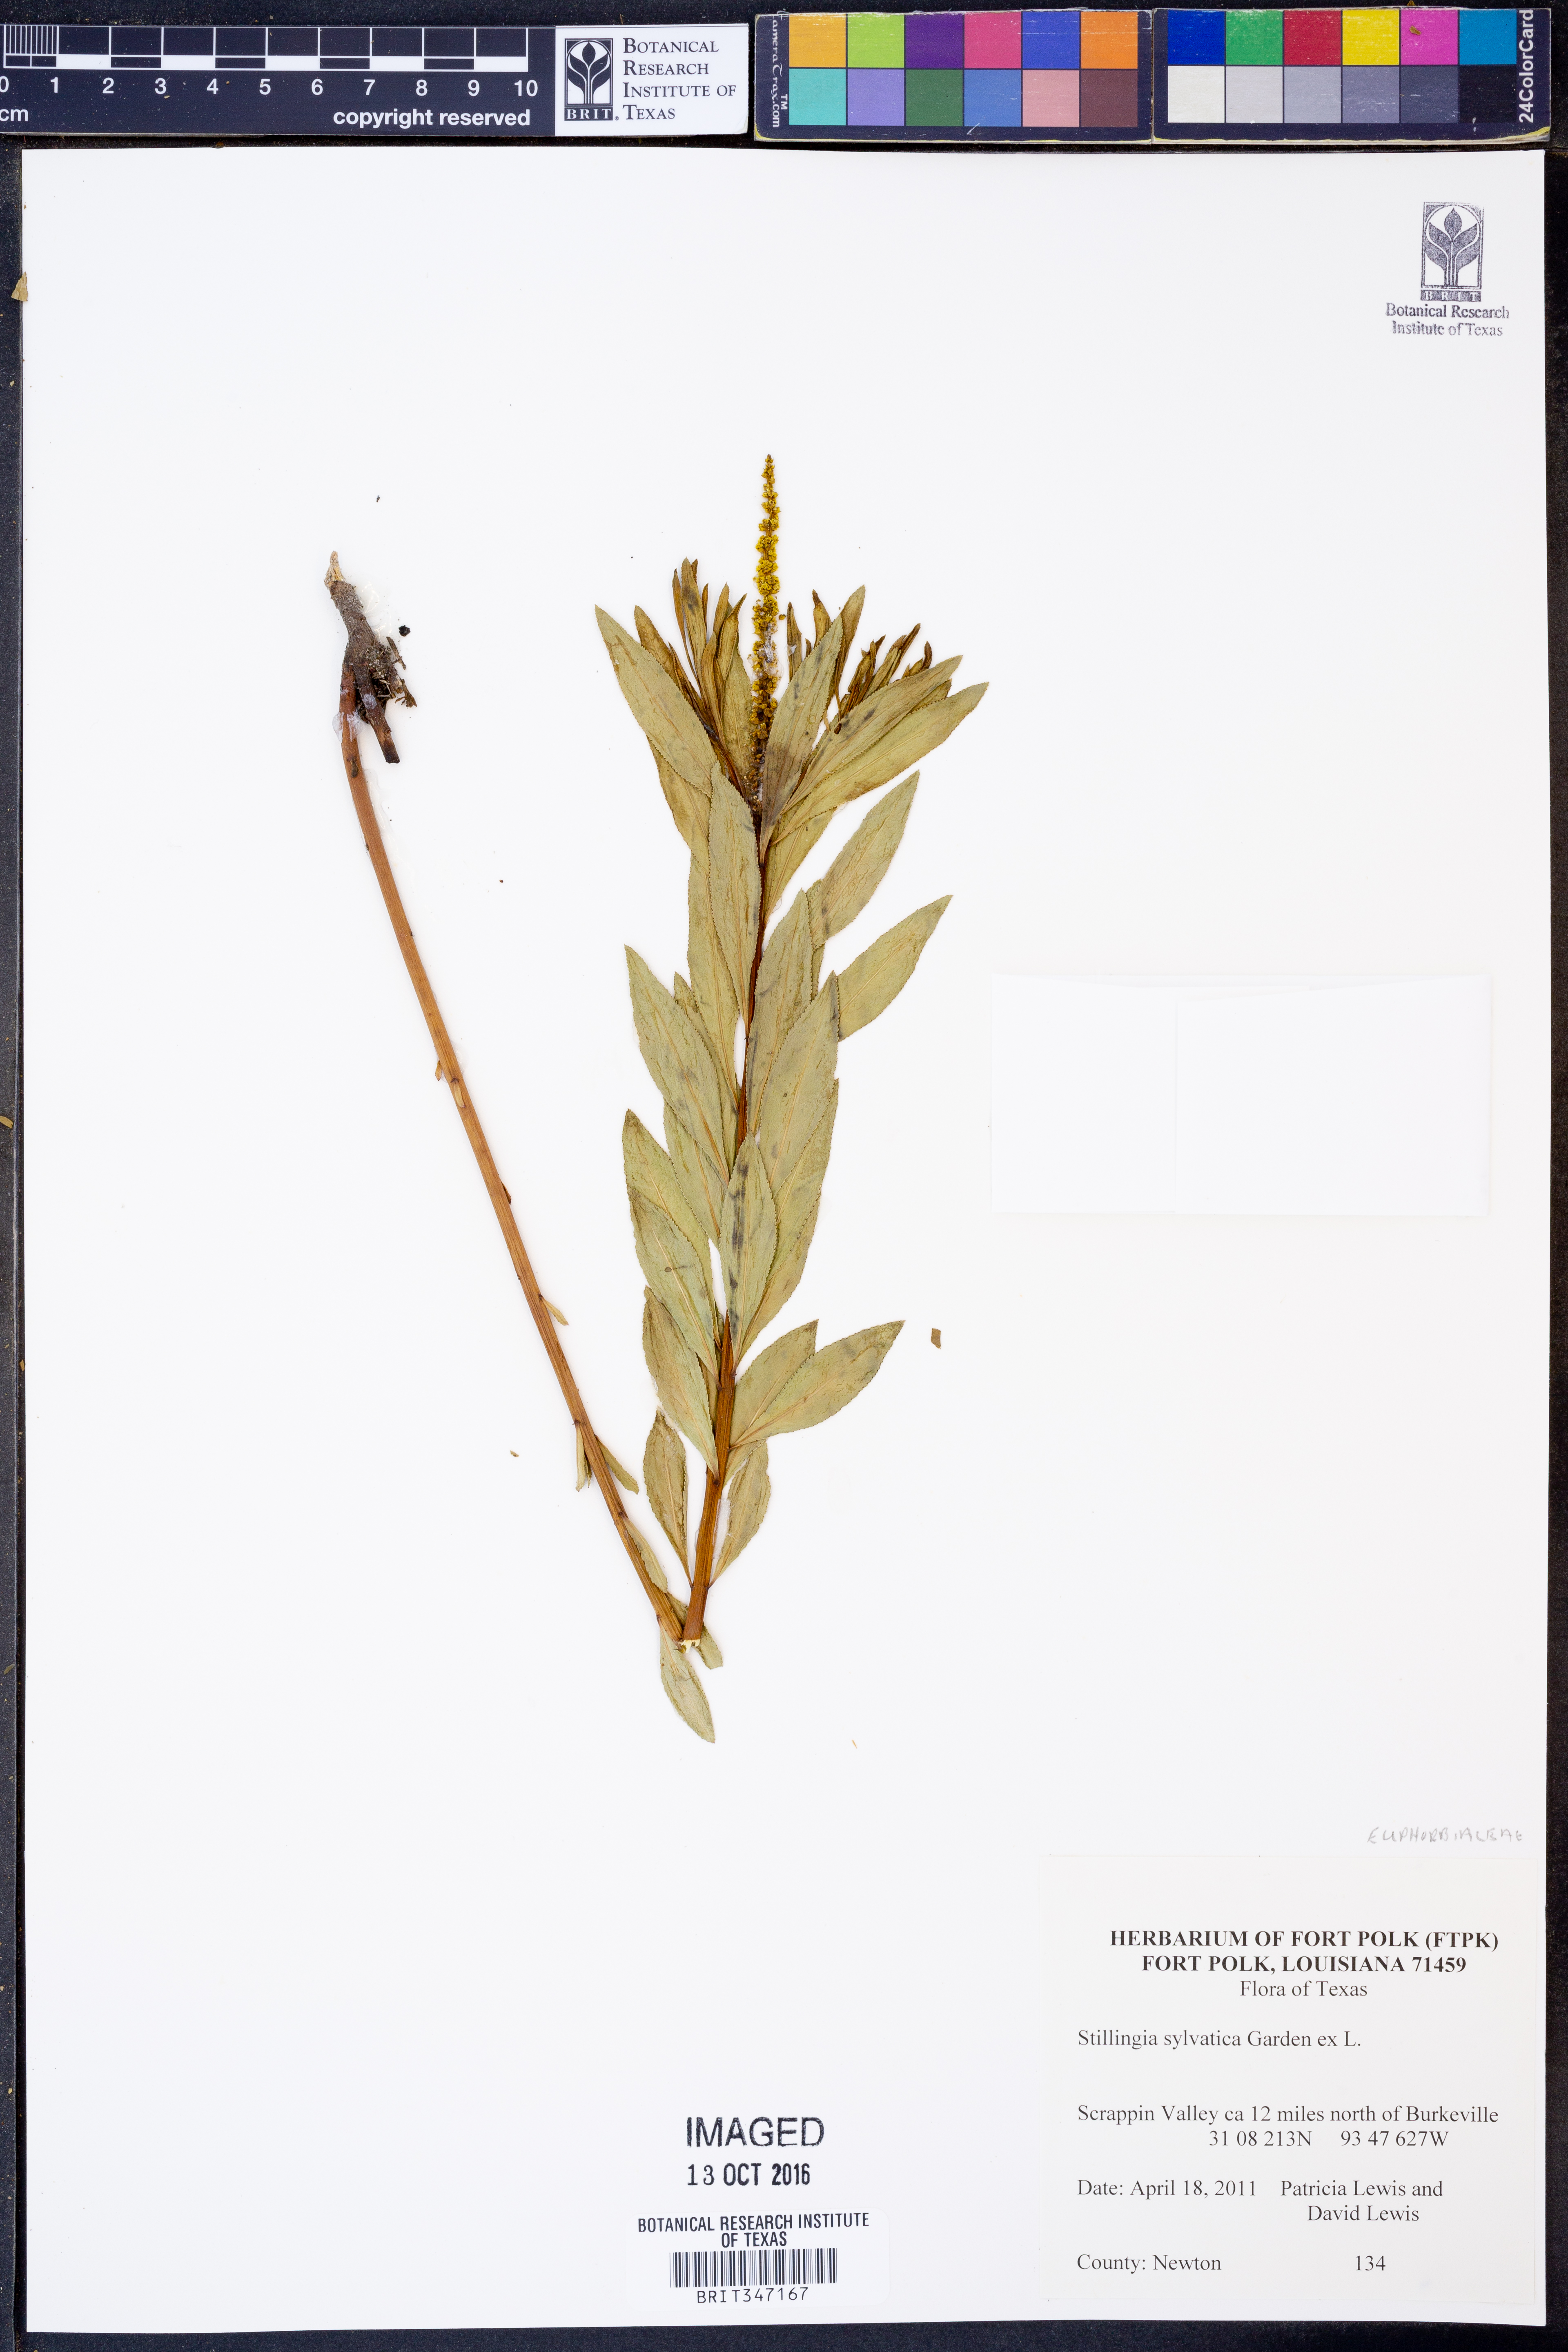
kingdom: Plantae
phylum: Tracheophyta
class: Magnoliopsida
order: Malpighiales
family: Euphorbiaceae
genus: Stillingia
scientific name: Stillingia sylvatica
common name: Queen's-delight
